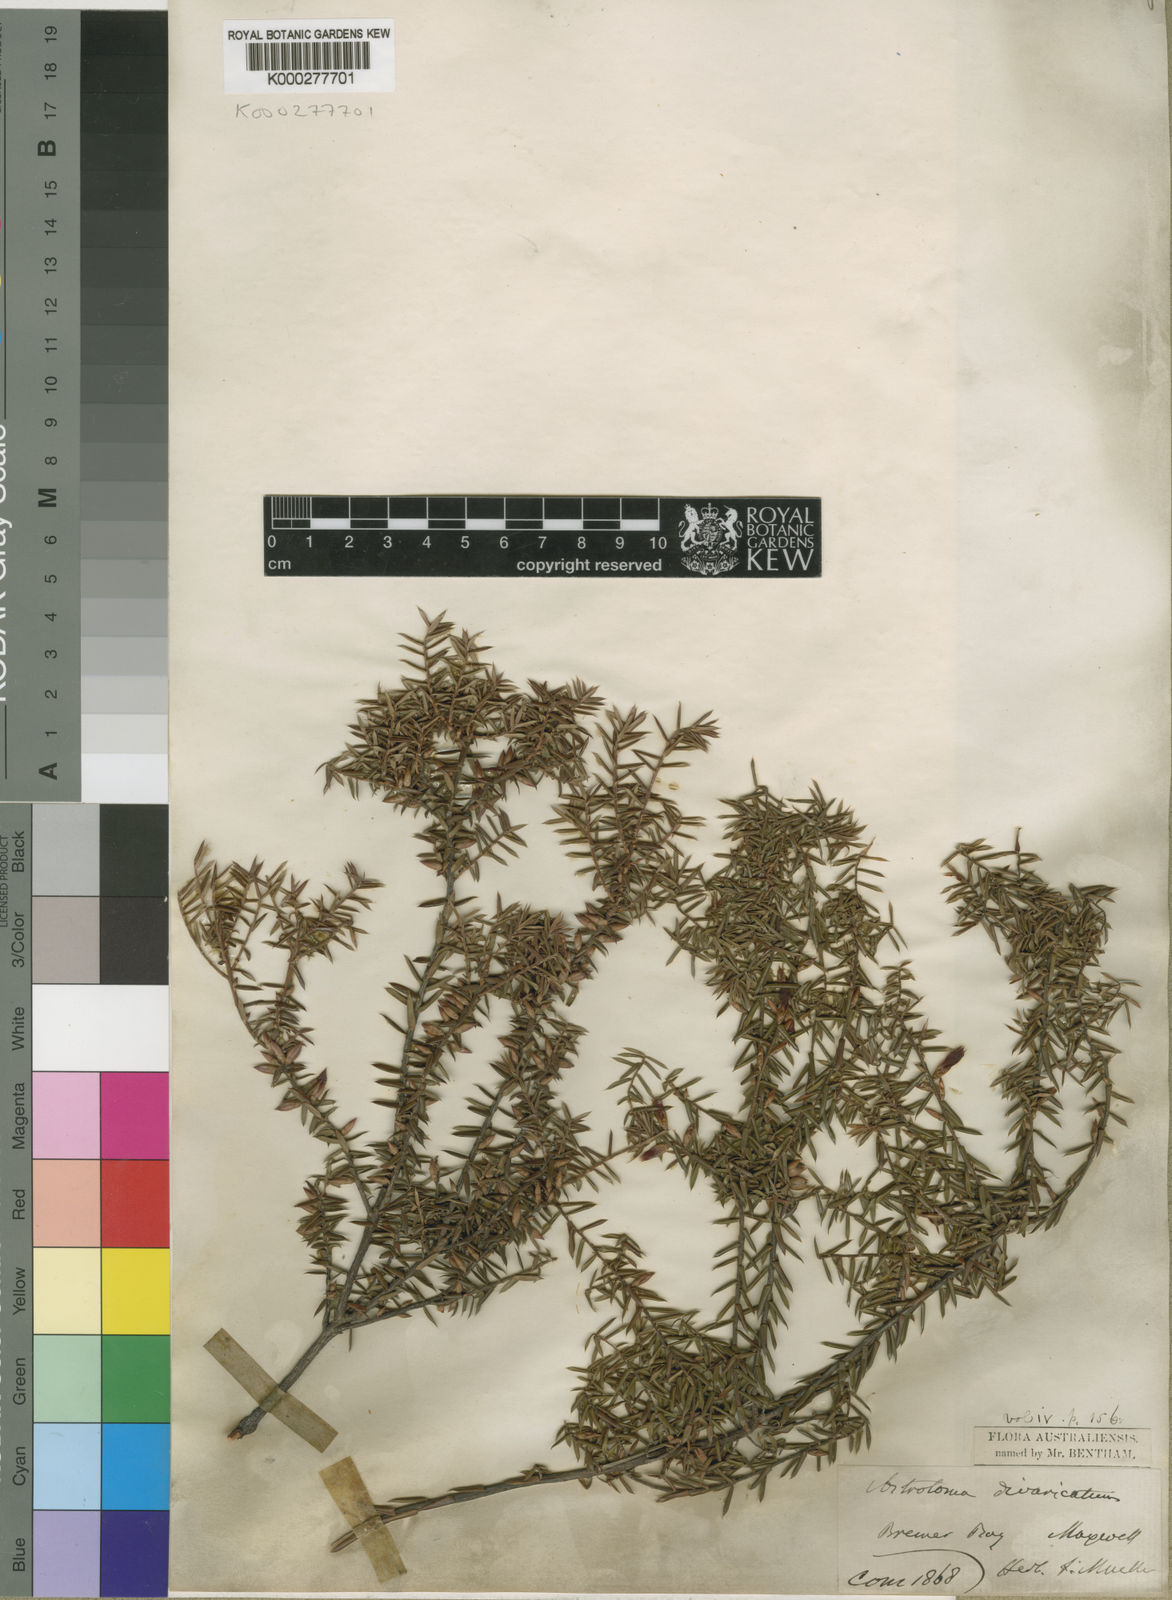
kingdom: Plantae
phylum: Tracheophyta
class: Magnoliopsida
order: Ericales
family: Ericaceae
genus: Styphelia
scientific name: Styphelia epacridis
